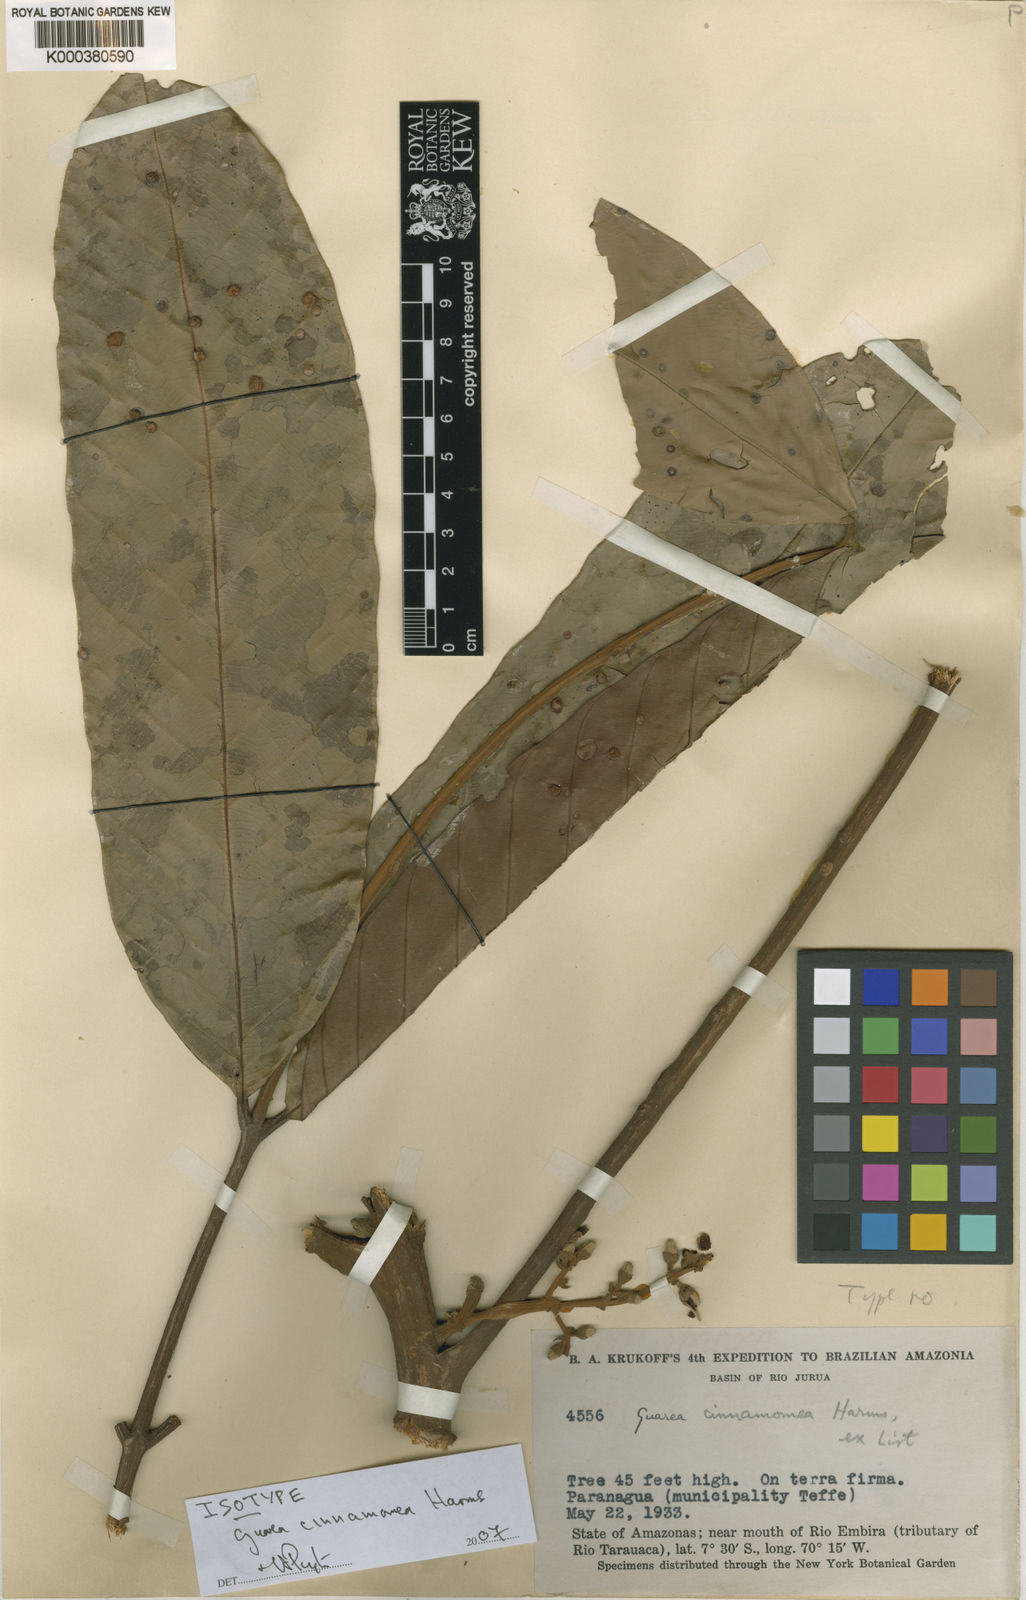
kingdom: Plantae
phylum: Tracheophyta
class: Magnoliopsida
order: Sapindales
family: Meliaceae
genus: Guarea
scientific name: Guarea cinnamomea
